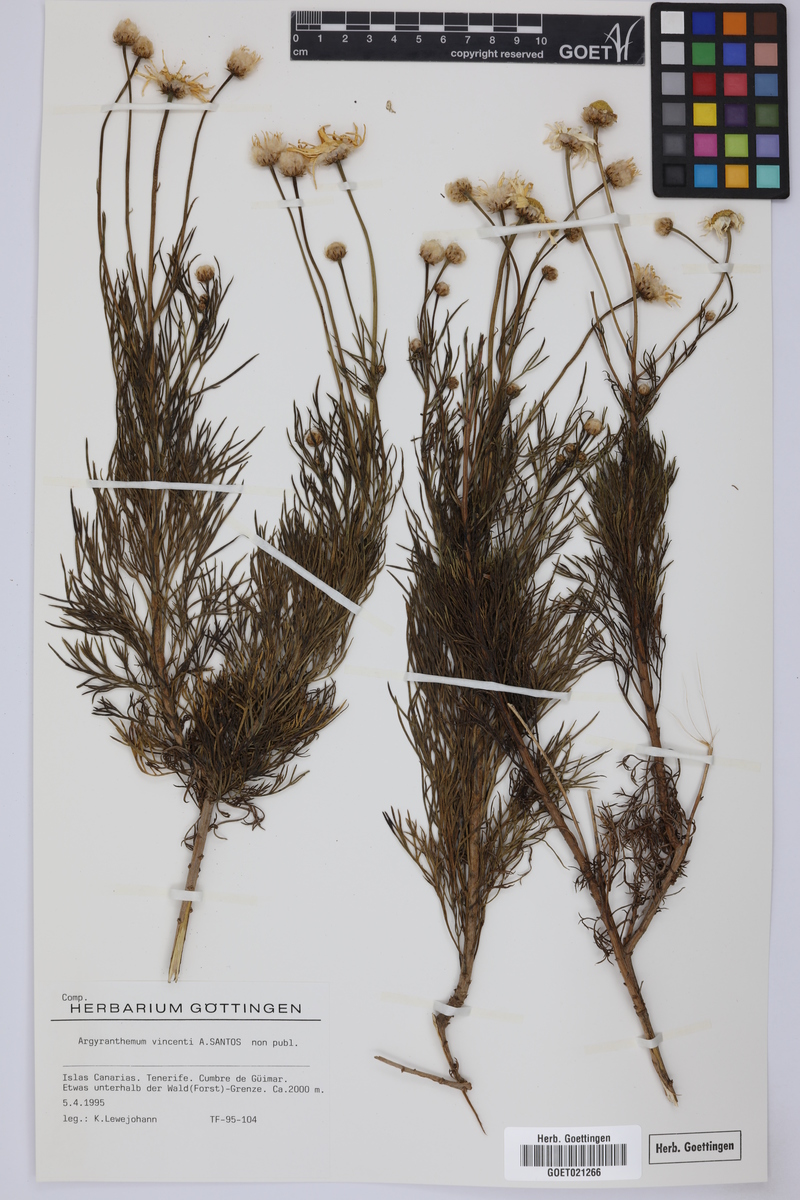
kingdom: Plantae
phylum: Tracheophyta
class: Magnoliopsida
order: Asterales
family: Asteraceae
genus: Argyranthemum
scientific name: Argyranthemum vincentii
